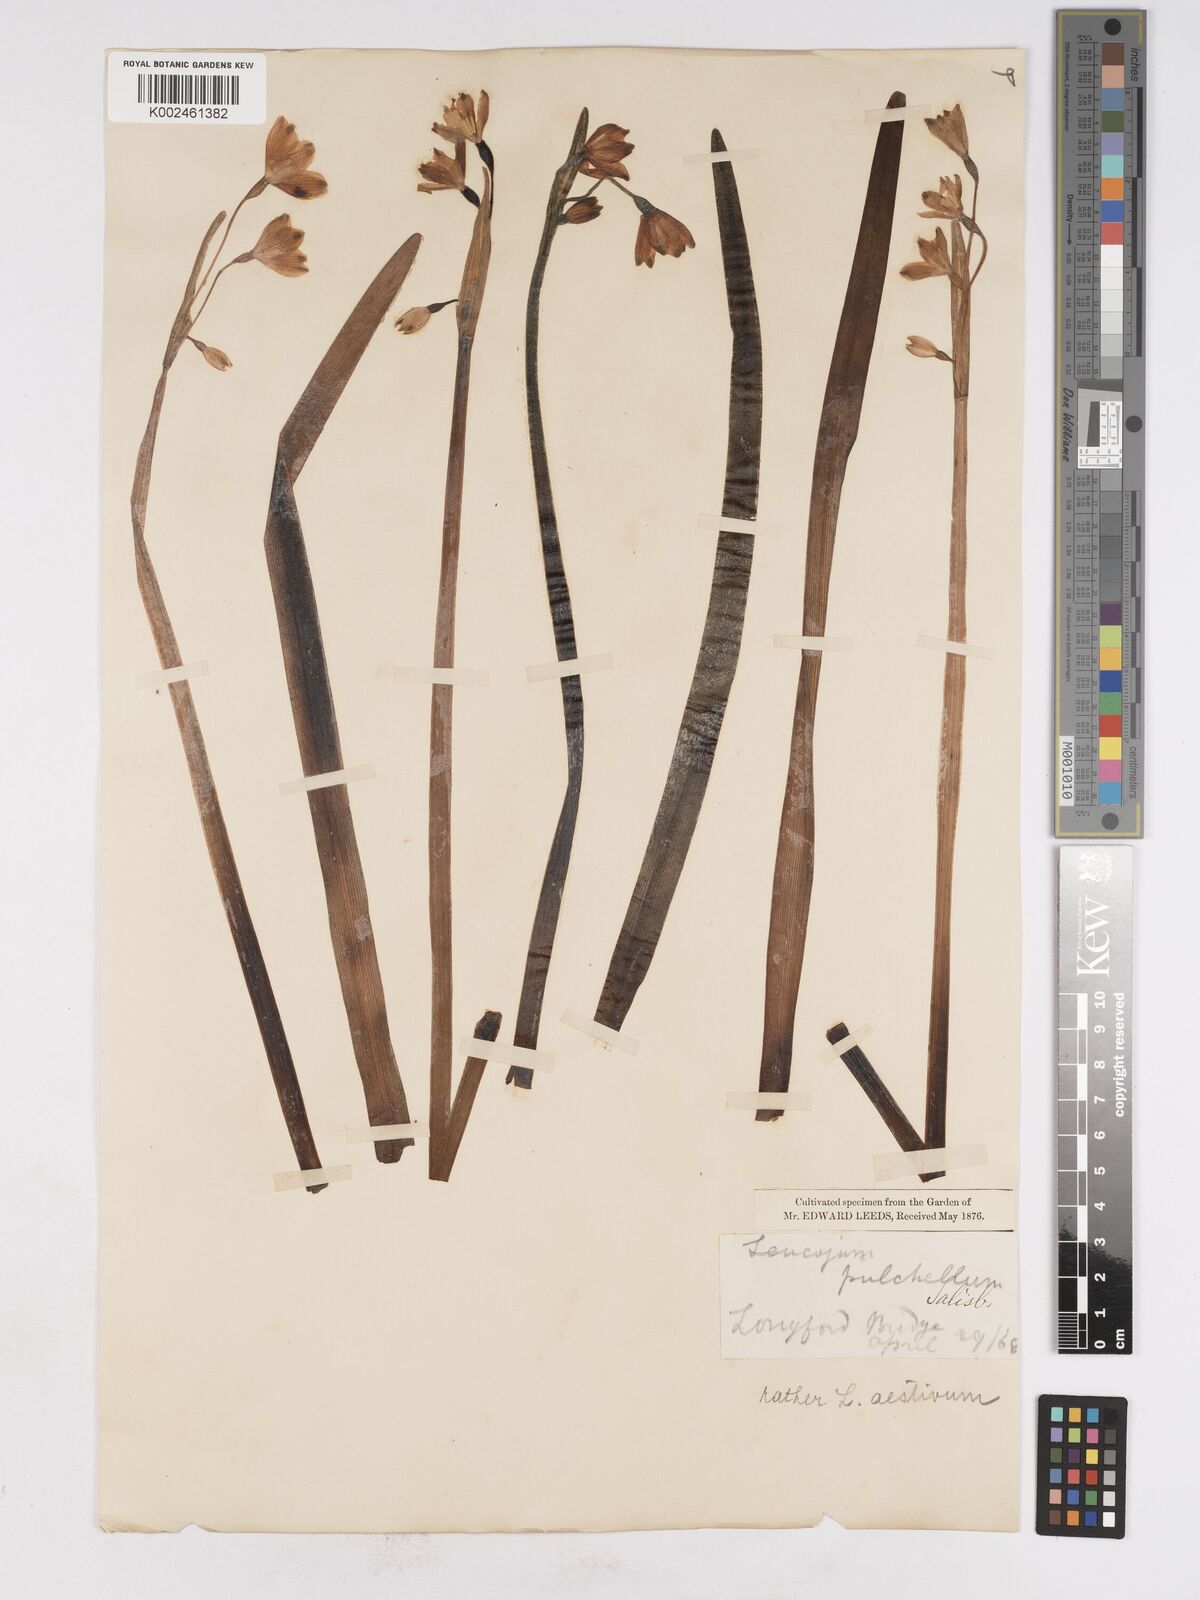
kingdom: Plantae
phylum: Tracheophyta
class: Liliopsida
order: Asparagales
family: Amaryllidaceae
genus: Leucojum
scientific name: Leucojum aestivum
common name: Summer snowflake
